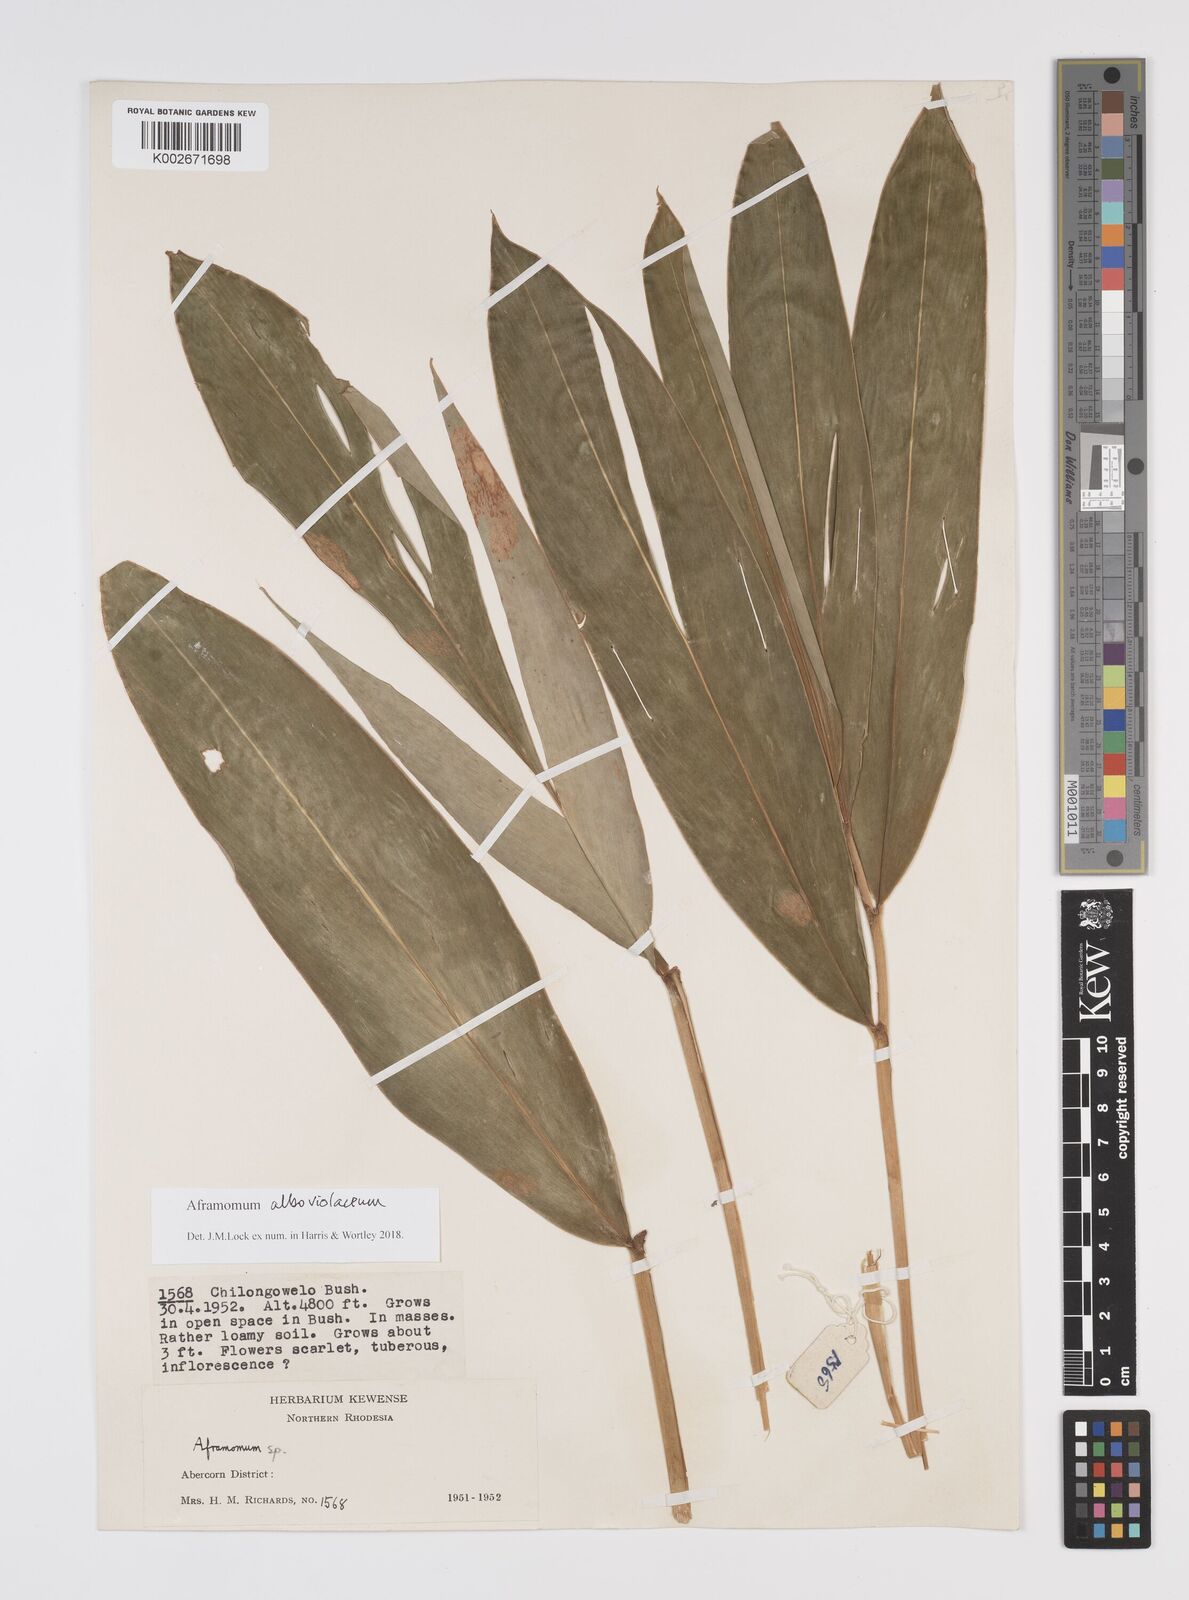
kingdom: Plantae
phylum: Tracheophyta
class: Liliopsida
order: Zingiberales
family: Zingiberaceae
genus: Aframomum
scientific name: Aframomum alboviolaceum
